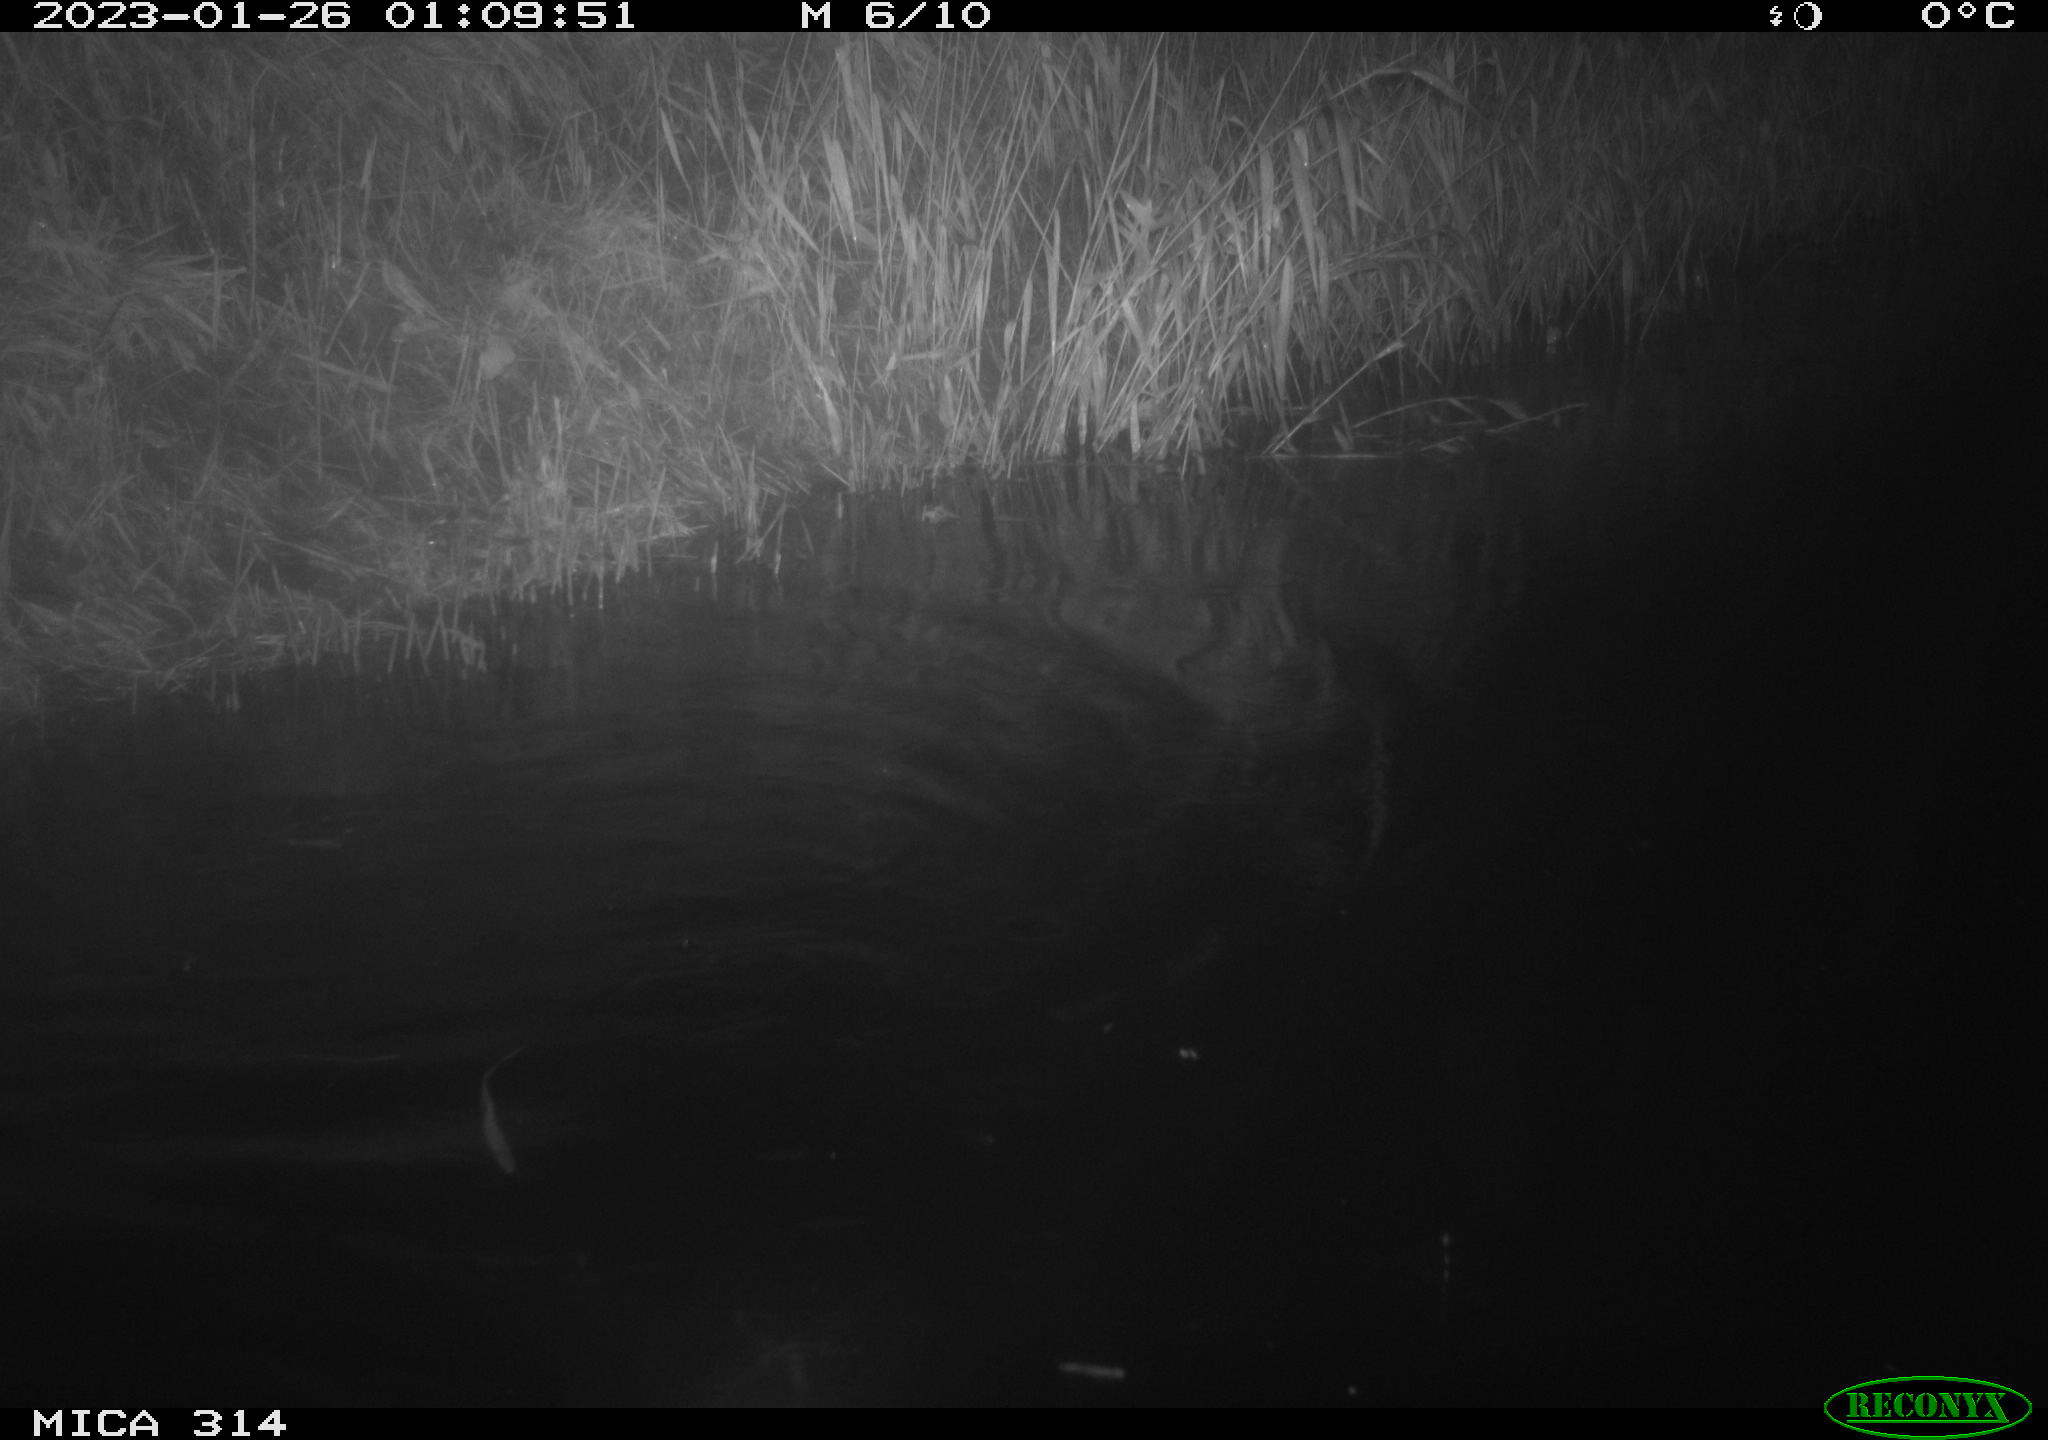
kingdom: Animalia
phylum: Chordata
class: Mammalia
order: Rodentia
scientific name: Rodentia
